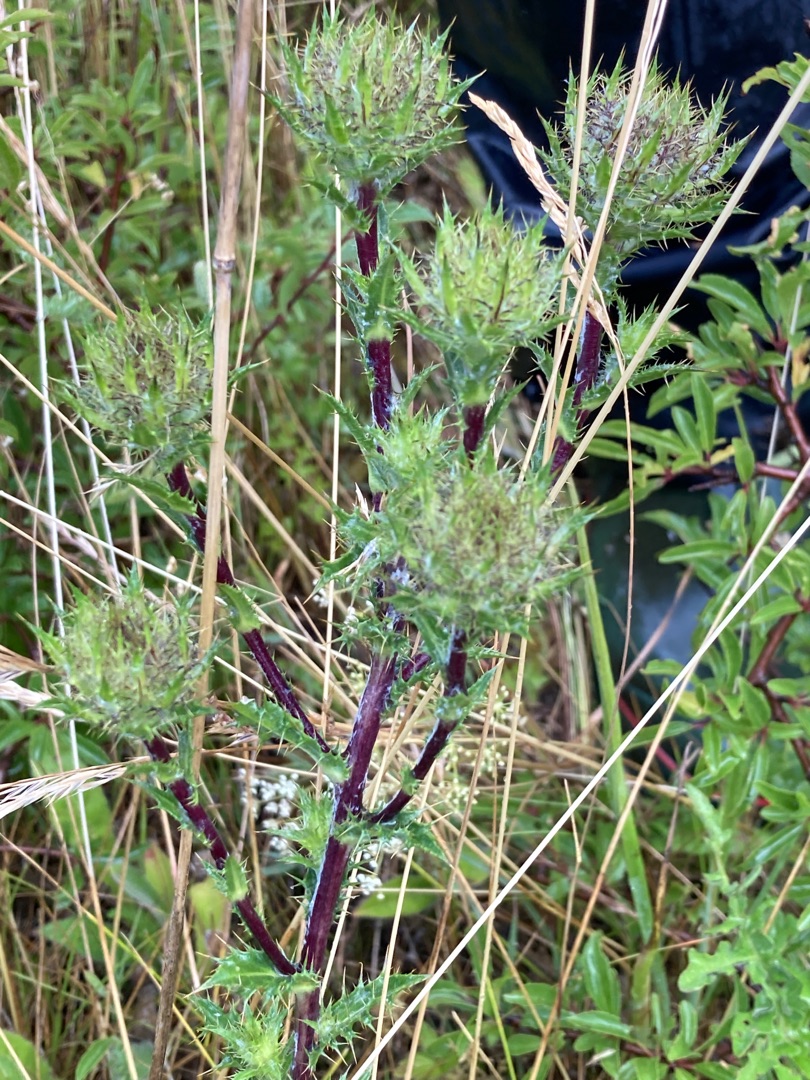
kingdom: Plantae
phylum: Tracheophyta
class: Magnoliopsida
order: Asterales
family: Asteraceae
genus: Carlina
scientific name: Carlina vulgaris
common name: Bakketidsel
